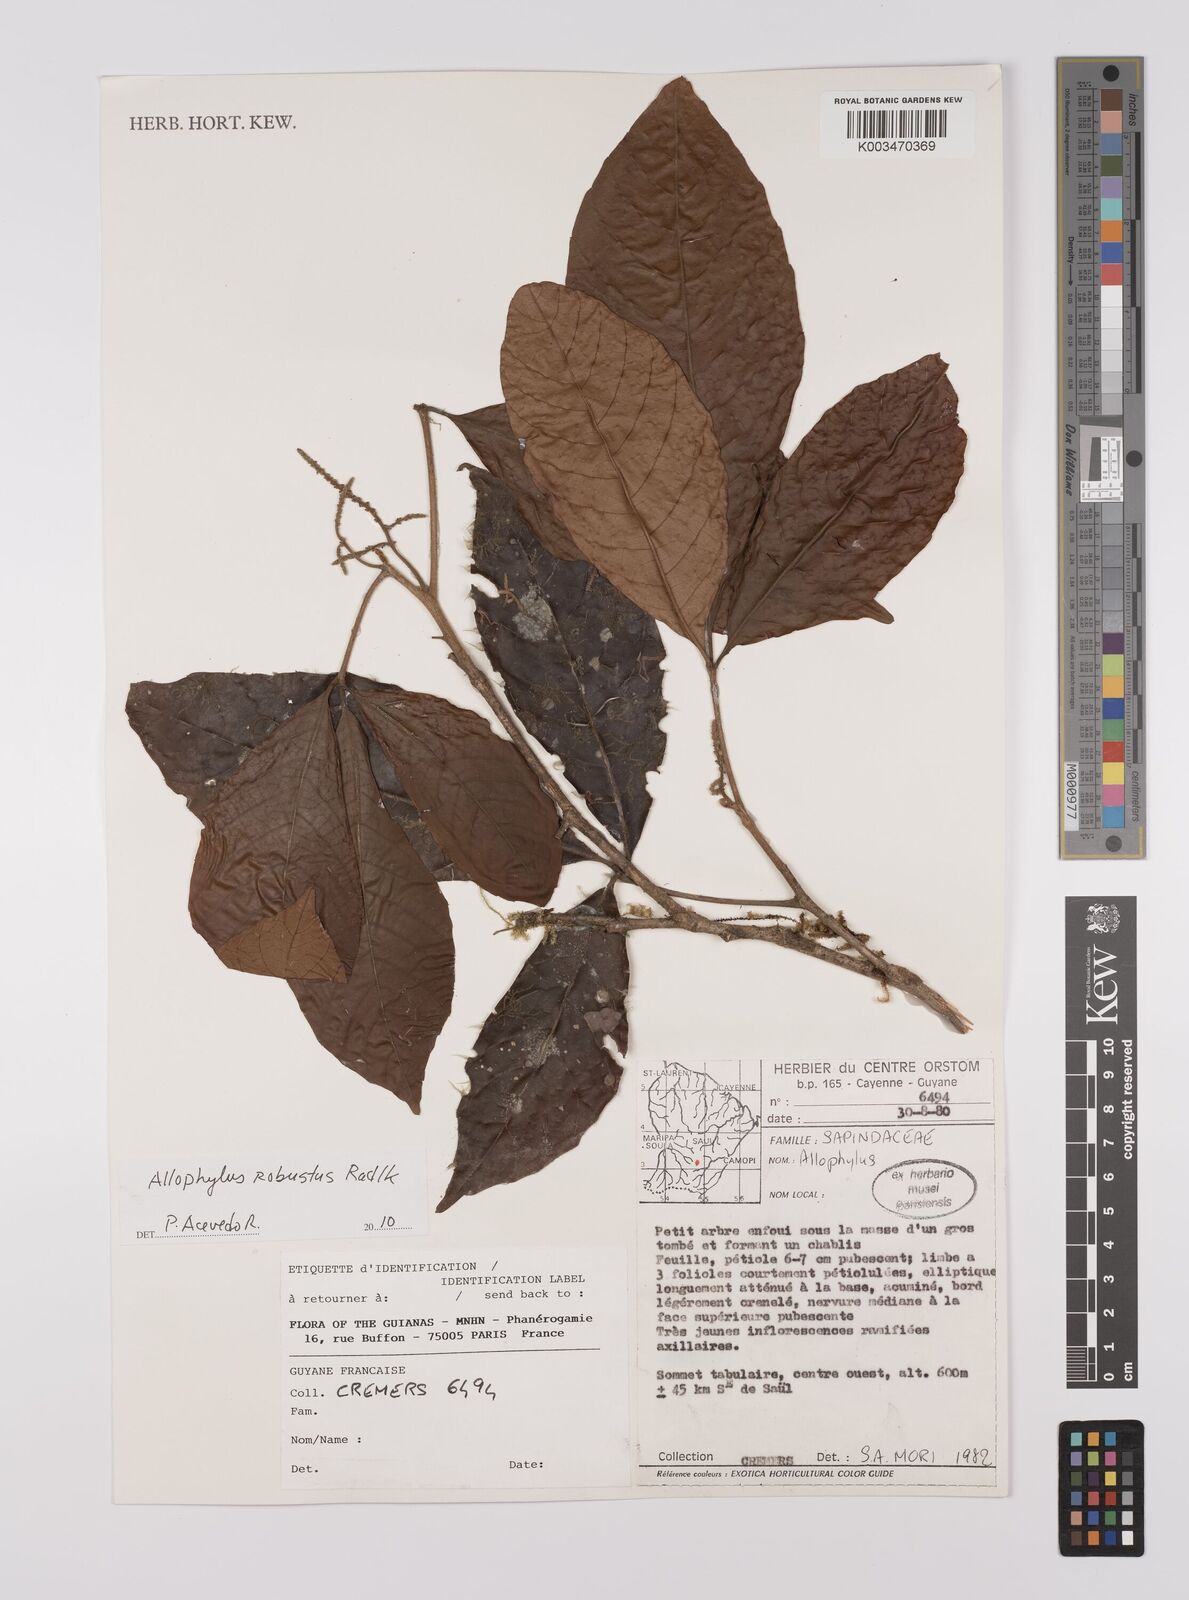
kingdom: Plantae
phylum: Tracheophyta
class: Magnoliopsida
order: Sapindales
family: Sapindaceae
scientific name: Sapindaceae
